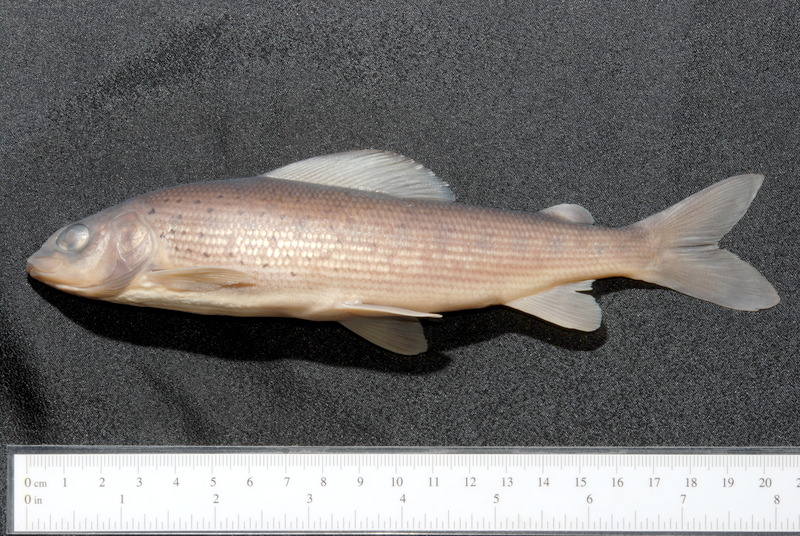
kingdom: Animalia
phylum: Chordata
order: Salmoniformes
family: Salmonidae
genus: Thymallus
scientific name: Thymallus thymallus
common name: Grayling
